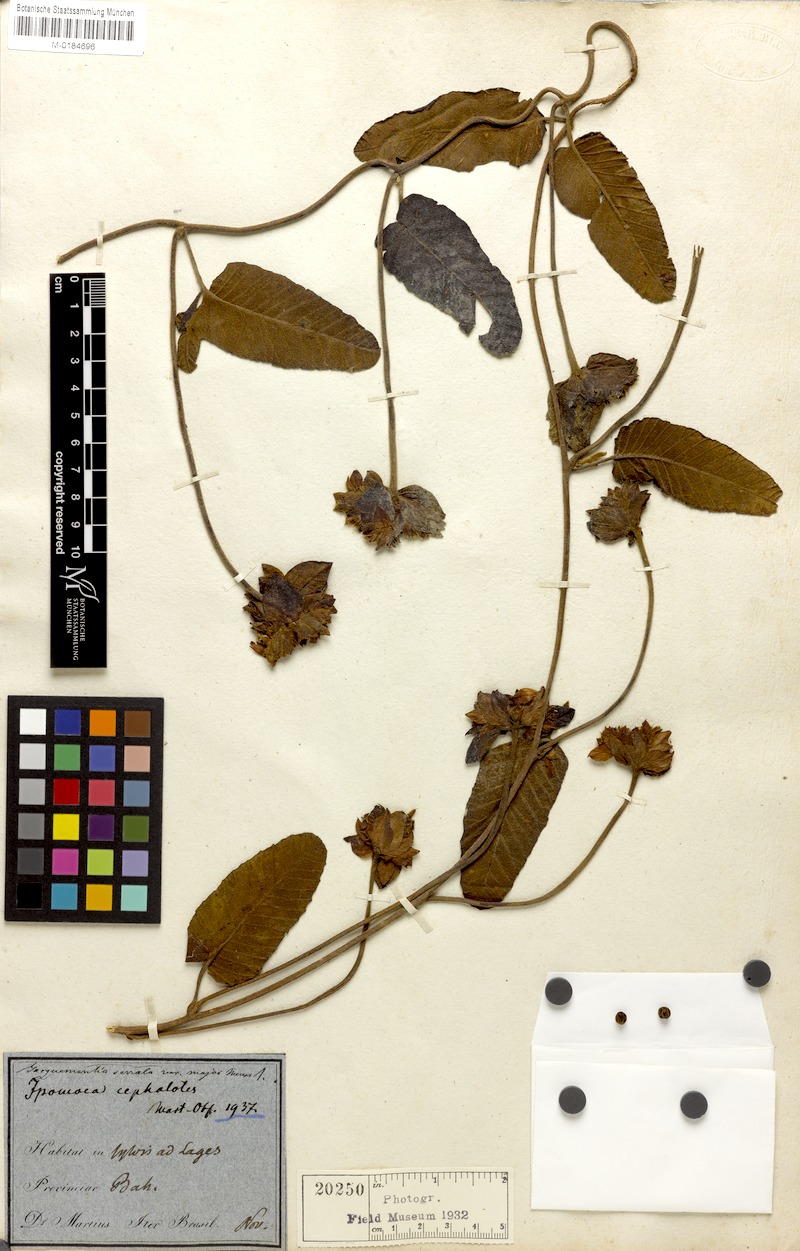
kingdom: Plantae
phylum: Tracheophyta
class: Magnoliopsida
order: Solanales
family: Convolvulaceae
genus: Daustinia
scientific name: Daustinia montana
